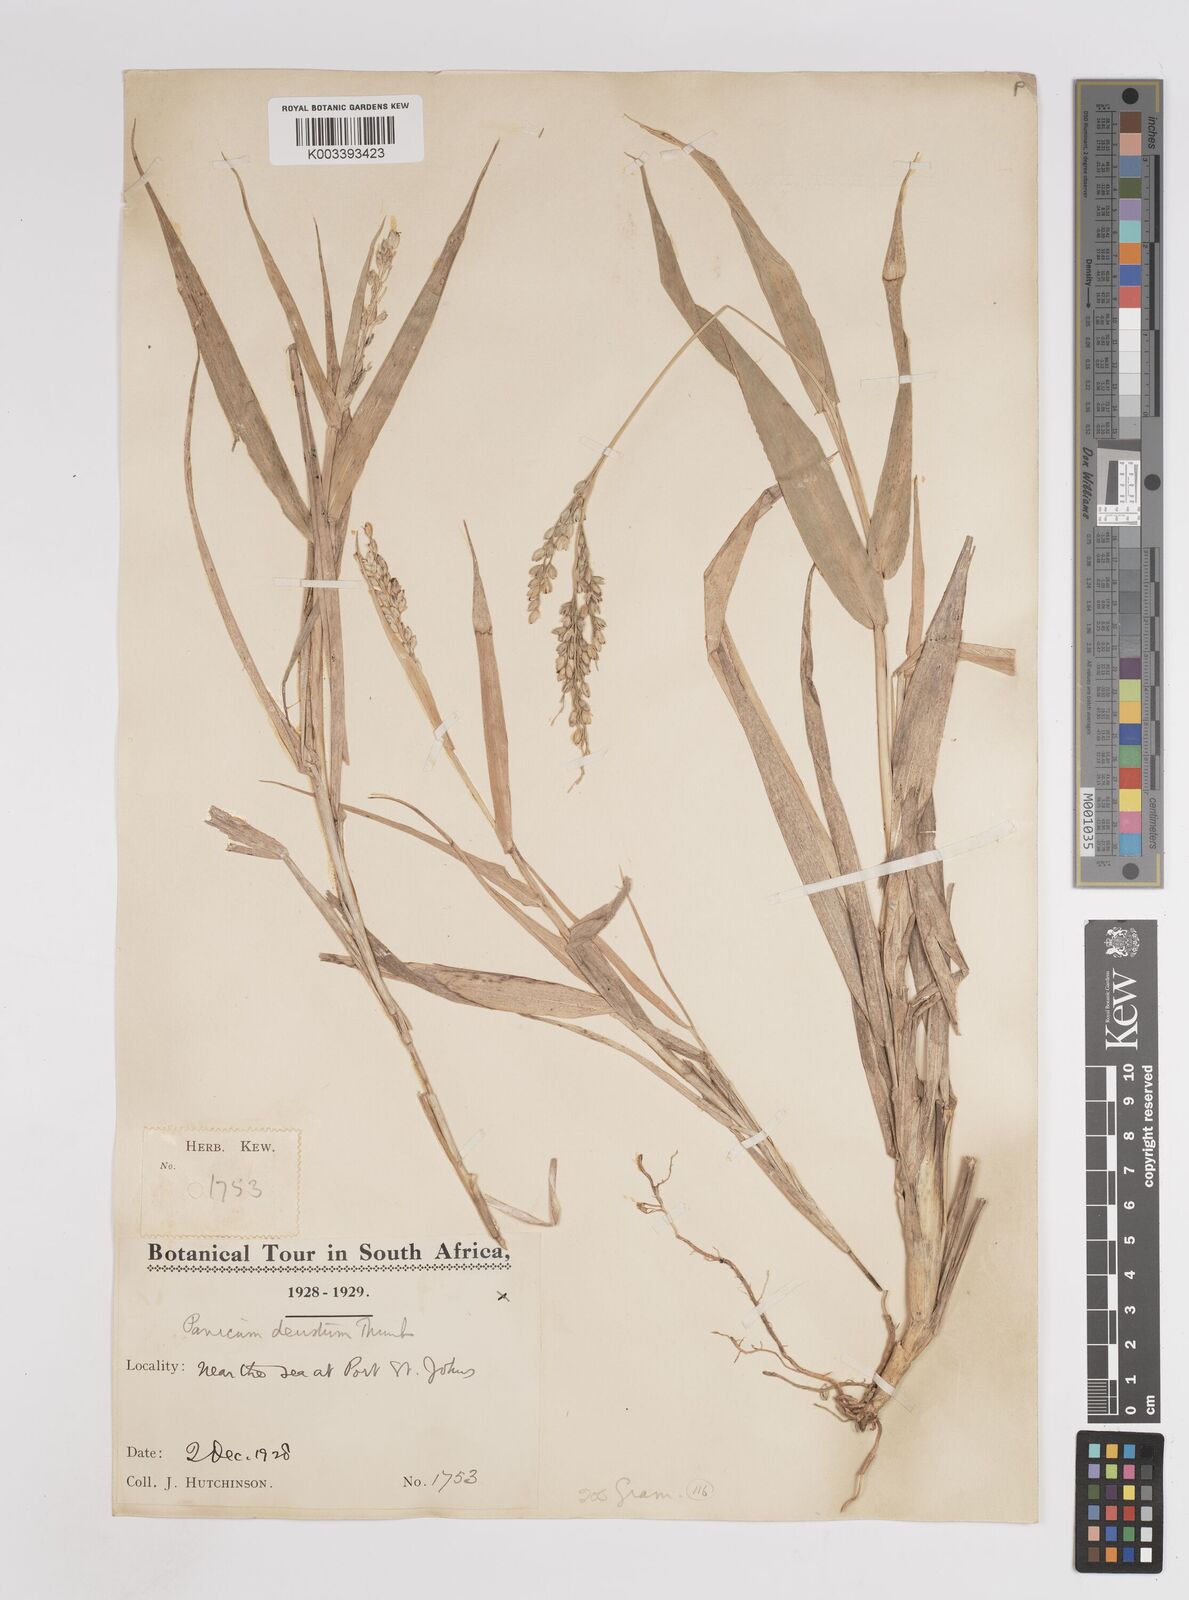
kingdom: Plantae
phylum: Tracheophyta
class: Liliopsida
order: Poales
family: Poaceae
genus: Panicum
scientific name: Panicum deustum
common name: Reed panicum
